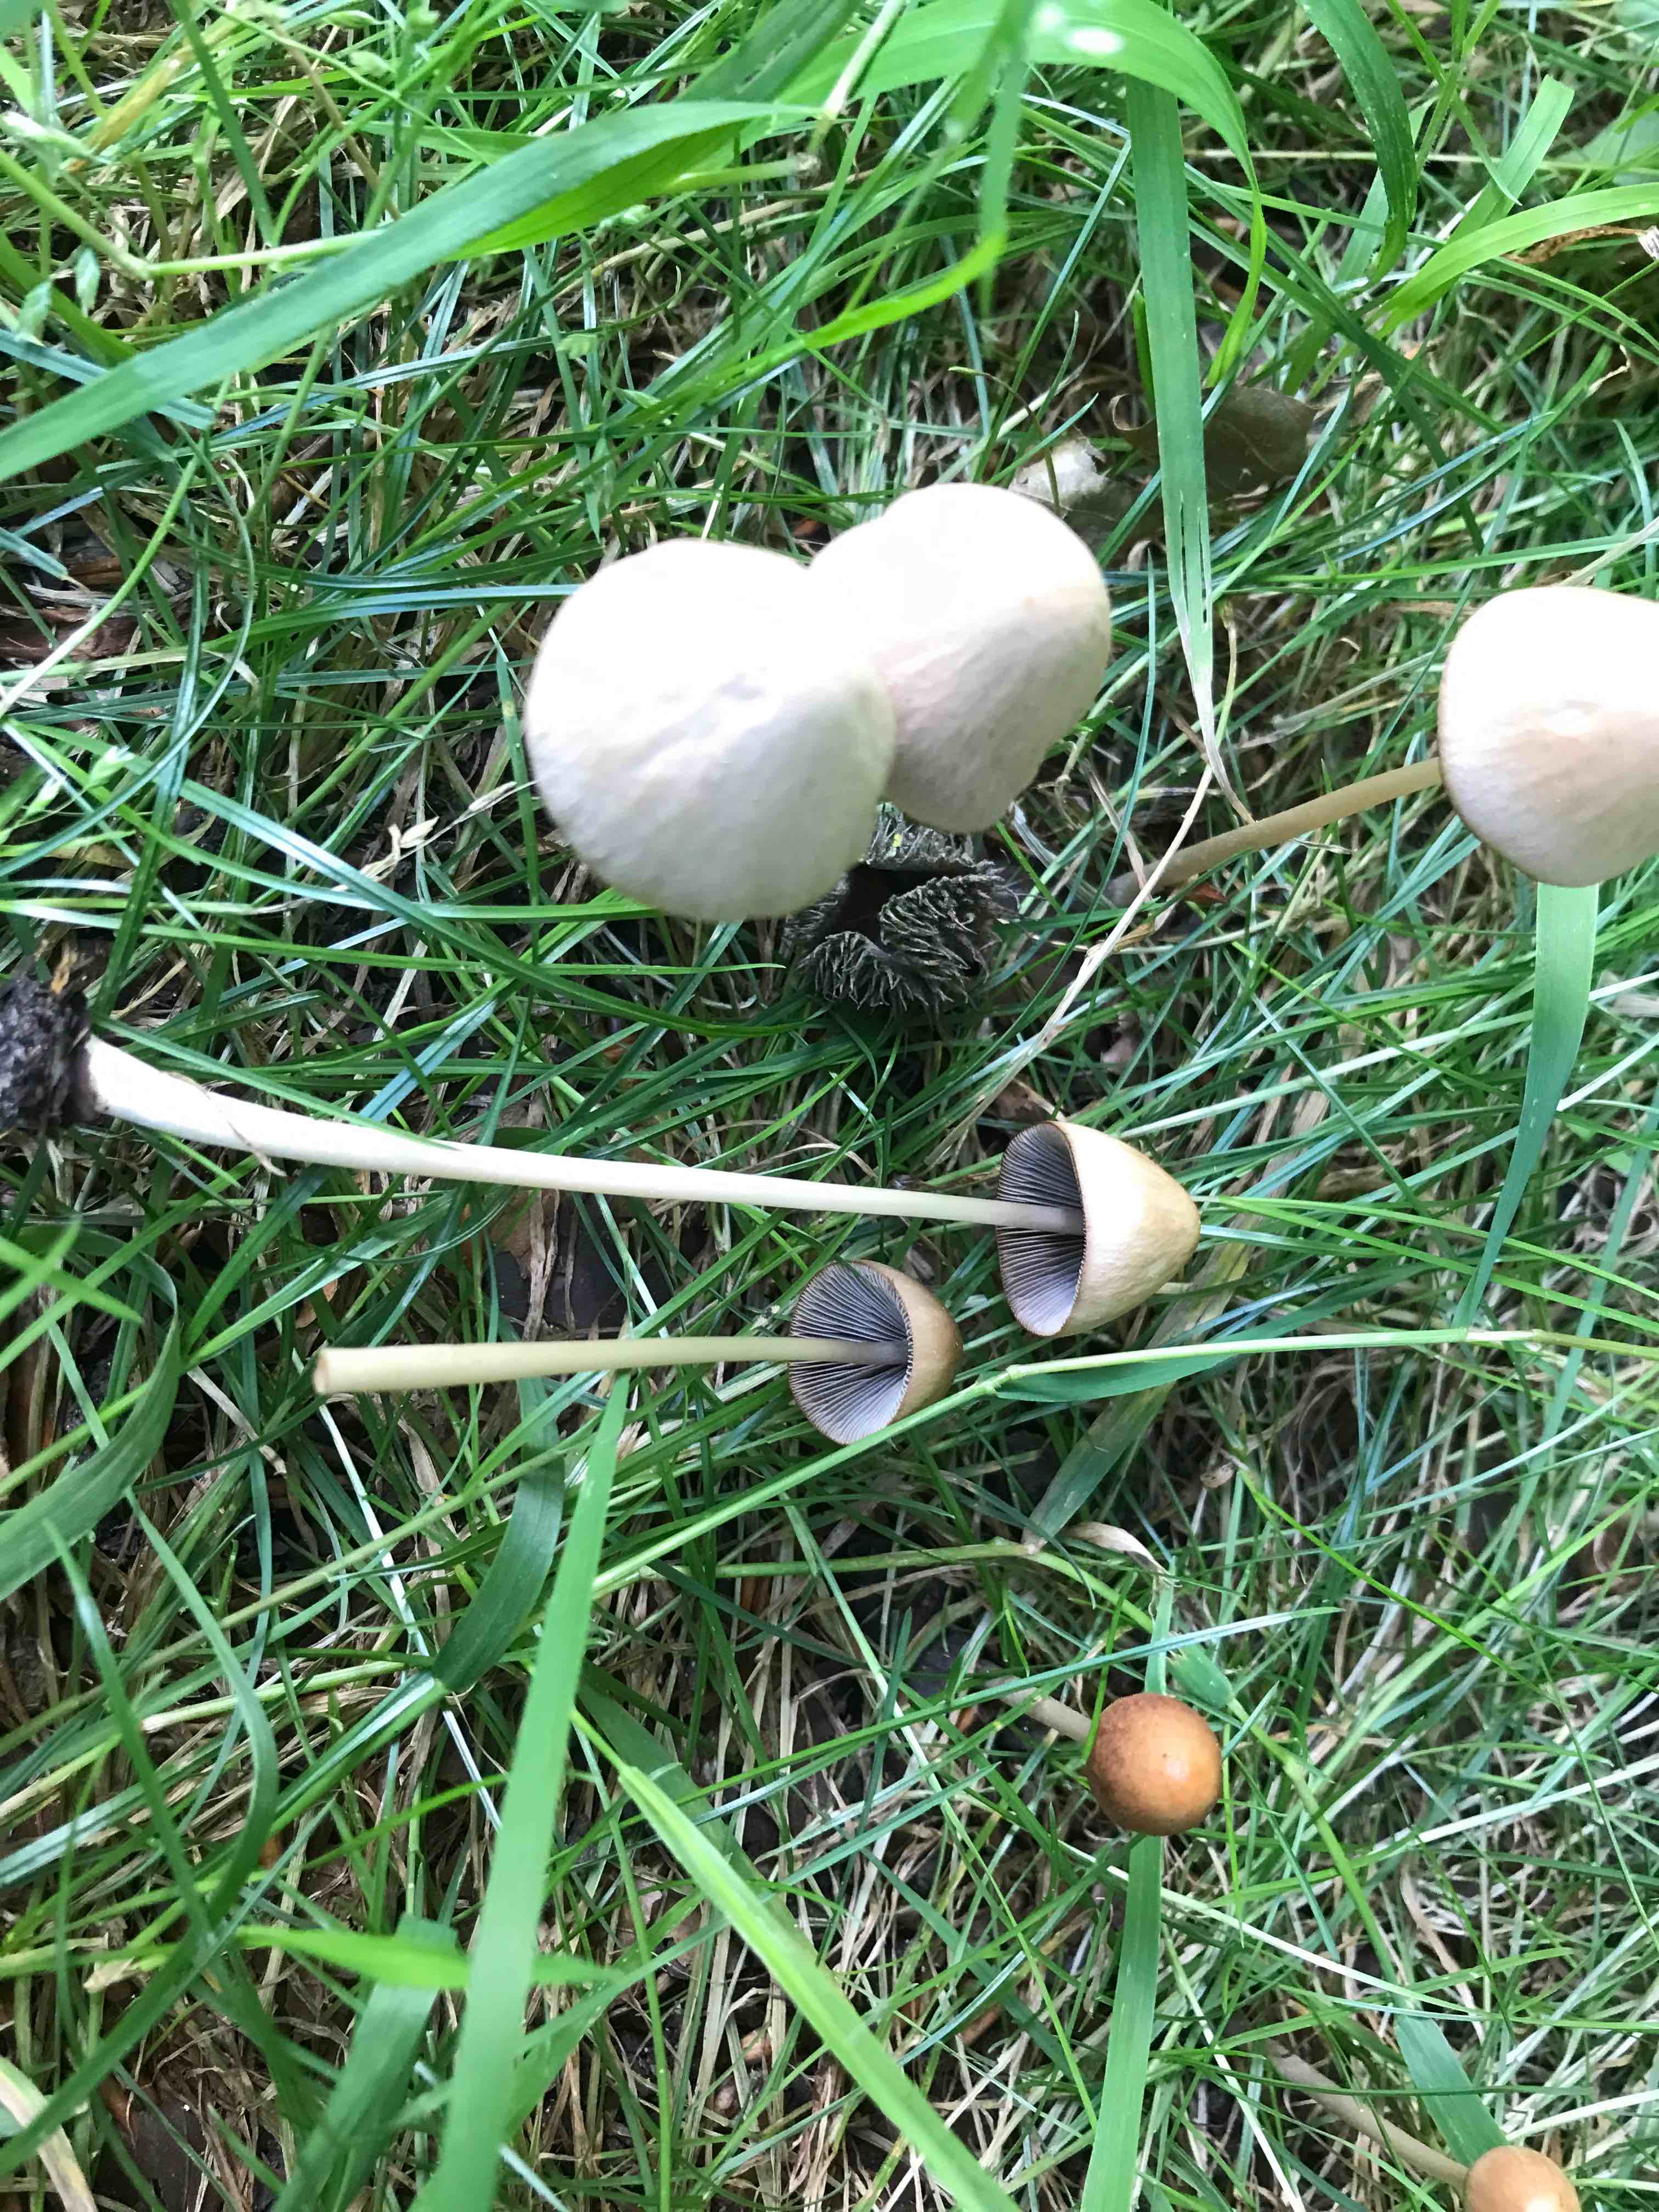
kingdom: Fungi
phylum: Basidiomycota
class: Agaricomycetes
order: Agaricales
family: Psathyrellaceae
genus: Parasola
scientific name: Parasola conopilea
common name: kegle-hjulhat
